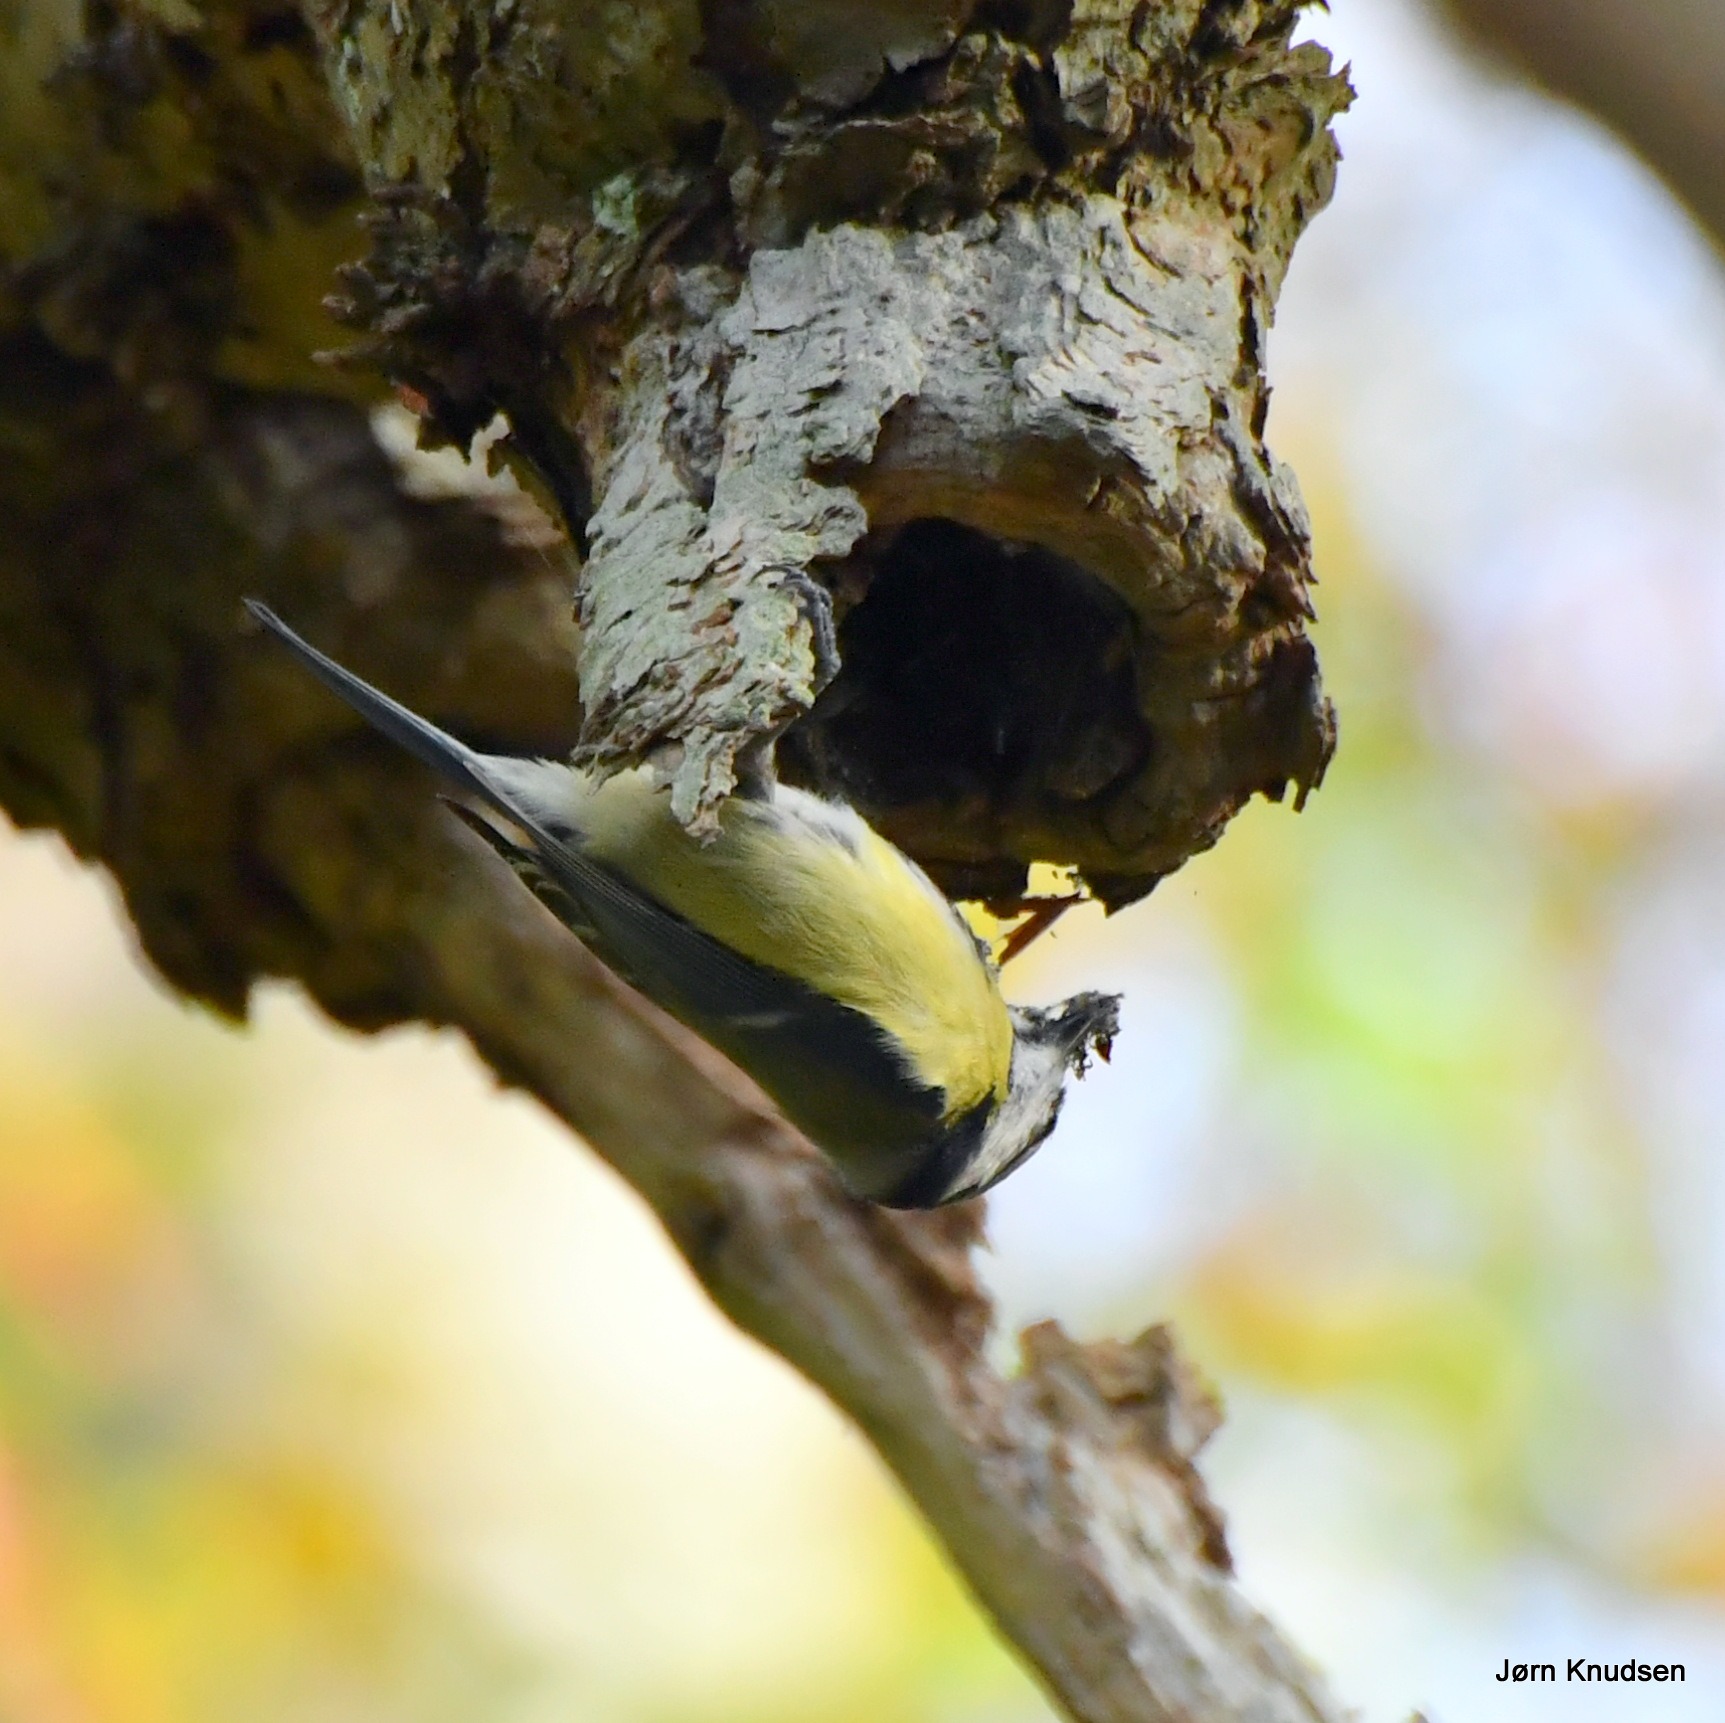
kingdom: Animalia
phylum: Chordata
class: Aves
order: Passeriformes
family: Paridae
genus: Cyanistes
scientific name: Cyanistes caeruleus
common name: Blåmejse
